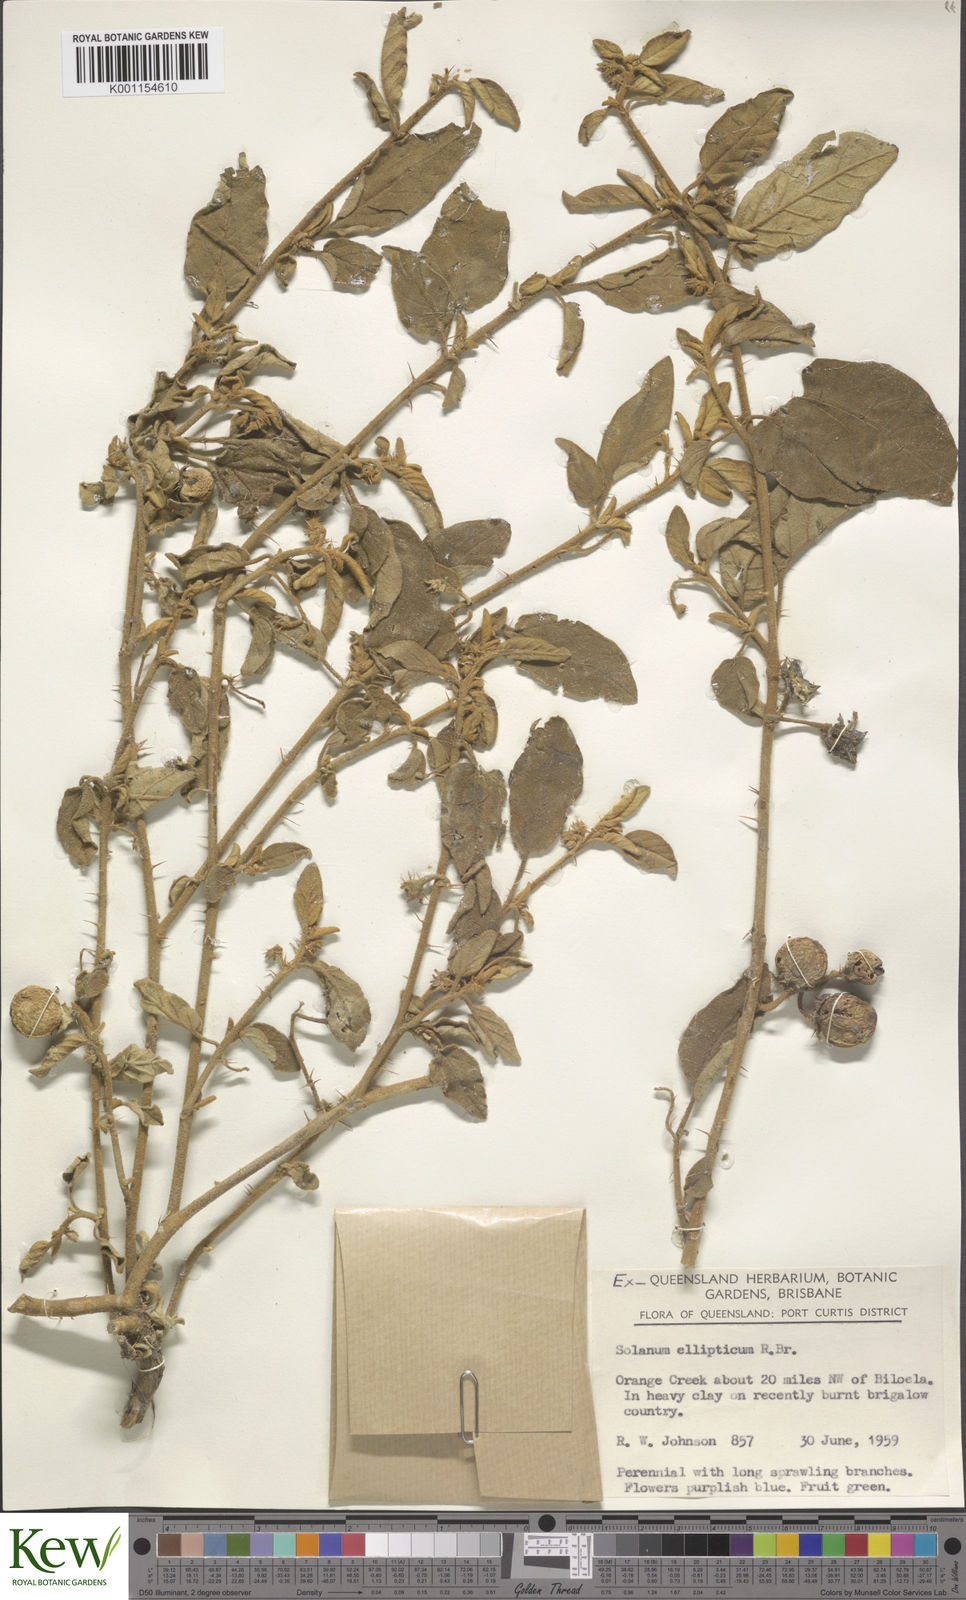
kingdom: Plantae
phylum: Tracheophyta
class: Magnoliopsida
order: Solanales
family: Solanaceae
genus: Solanum
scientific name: Solanum ellipticum
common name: Potato-bush
